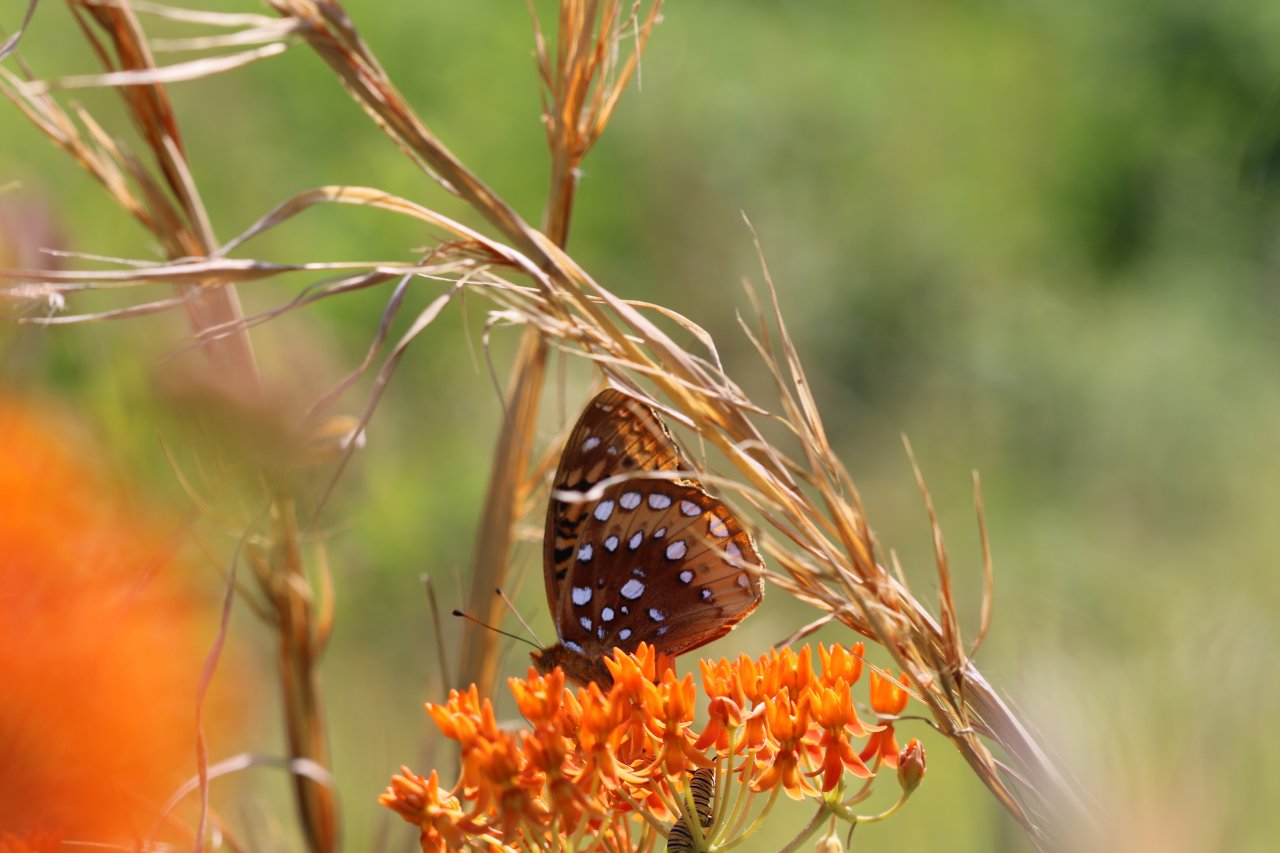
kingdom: Animalia
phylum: Arthropoda
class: Insecta
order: Lepidoptera
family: Nymphalidae
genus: Speyeria
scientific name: Speyeria cybele
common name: Great Spangled Fritillary
